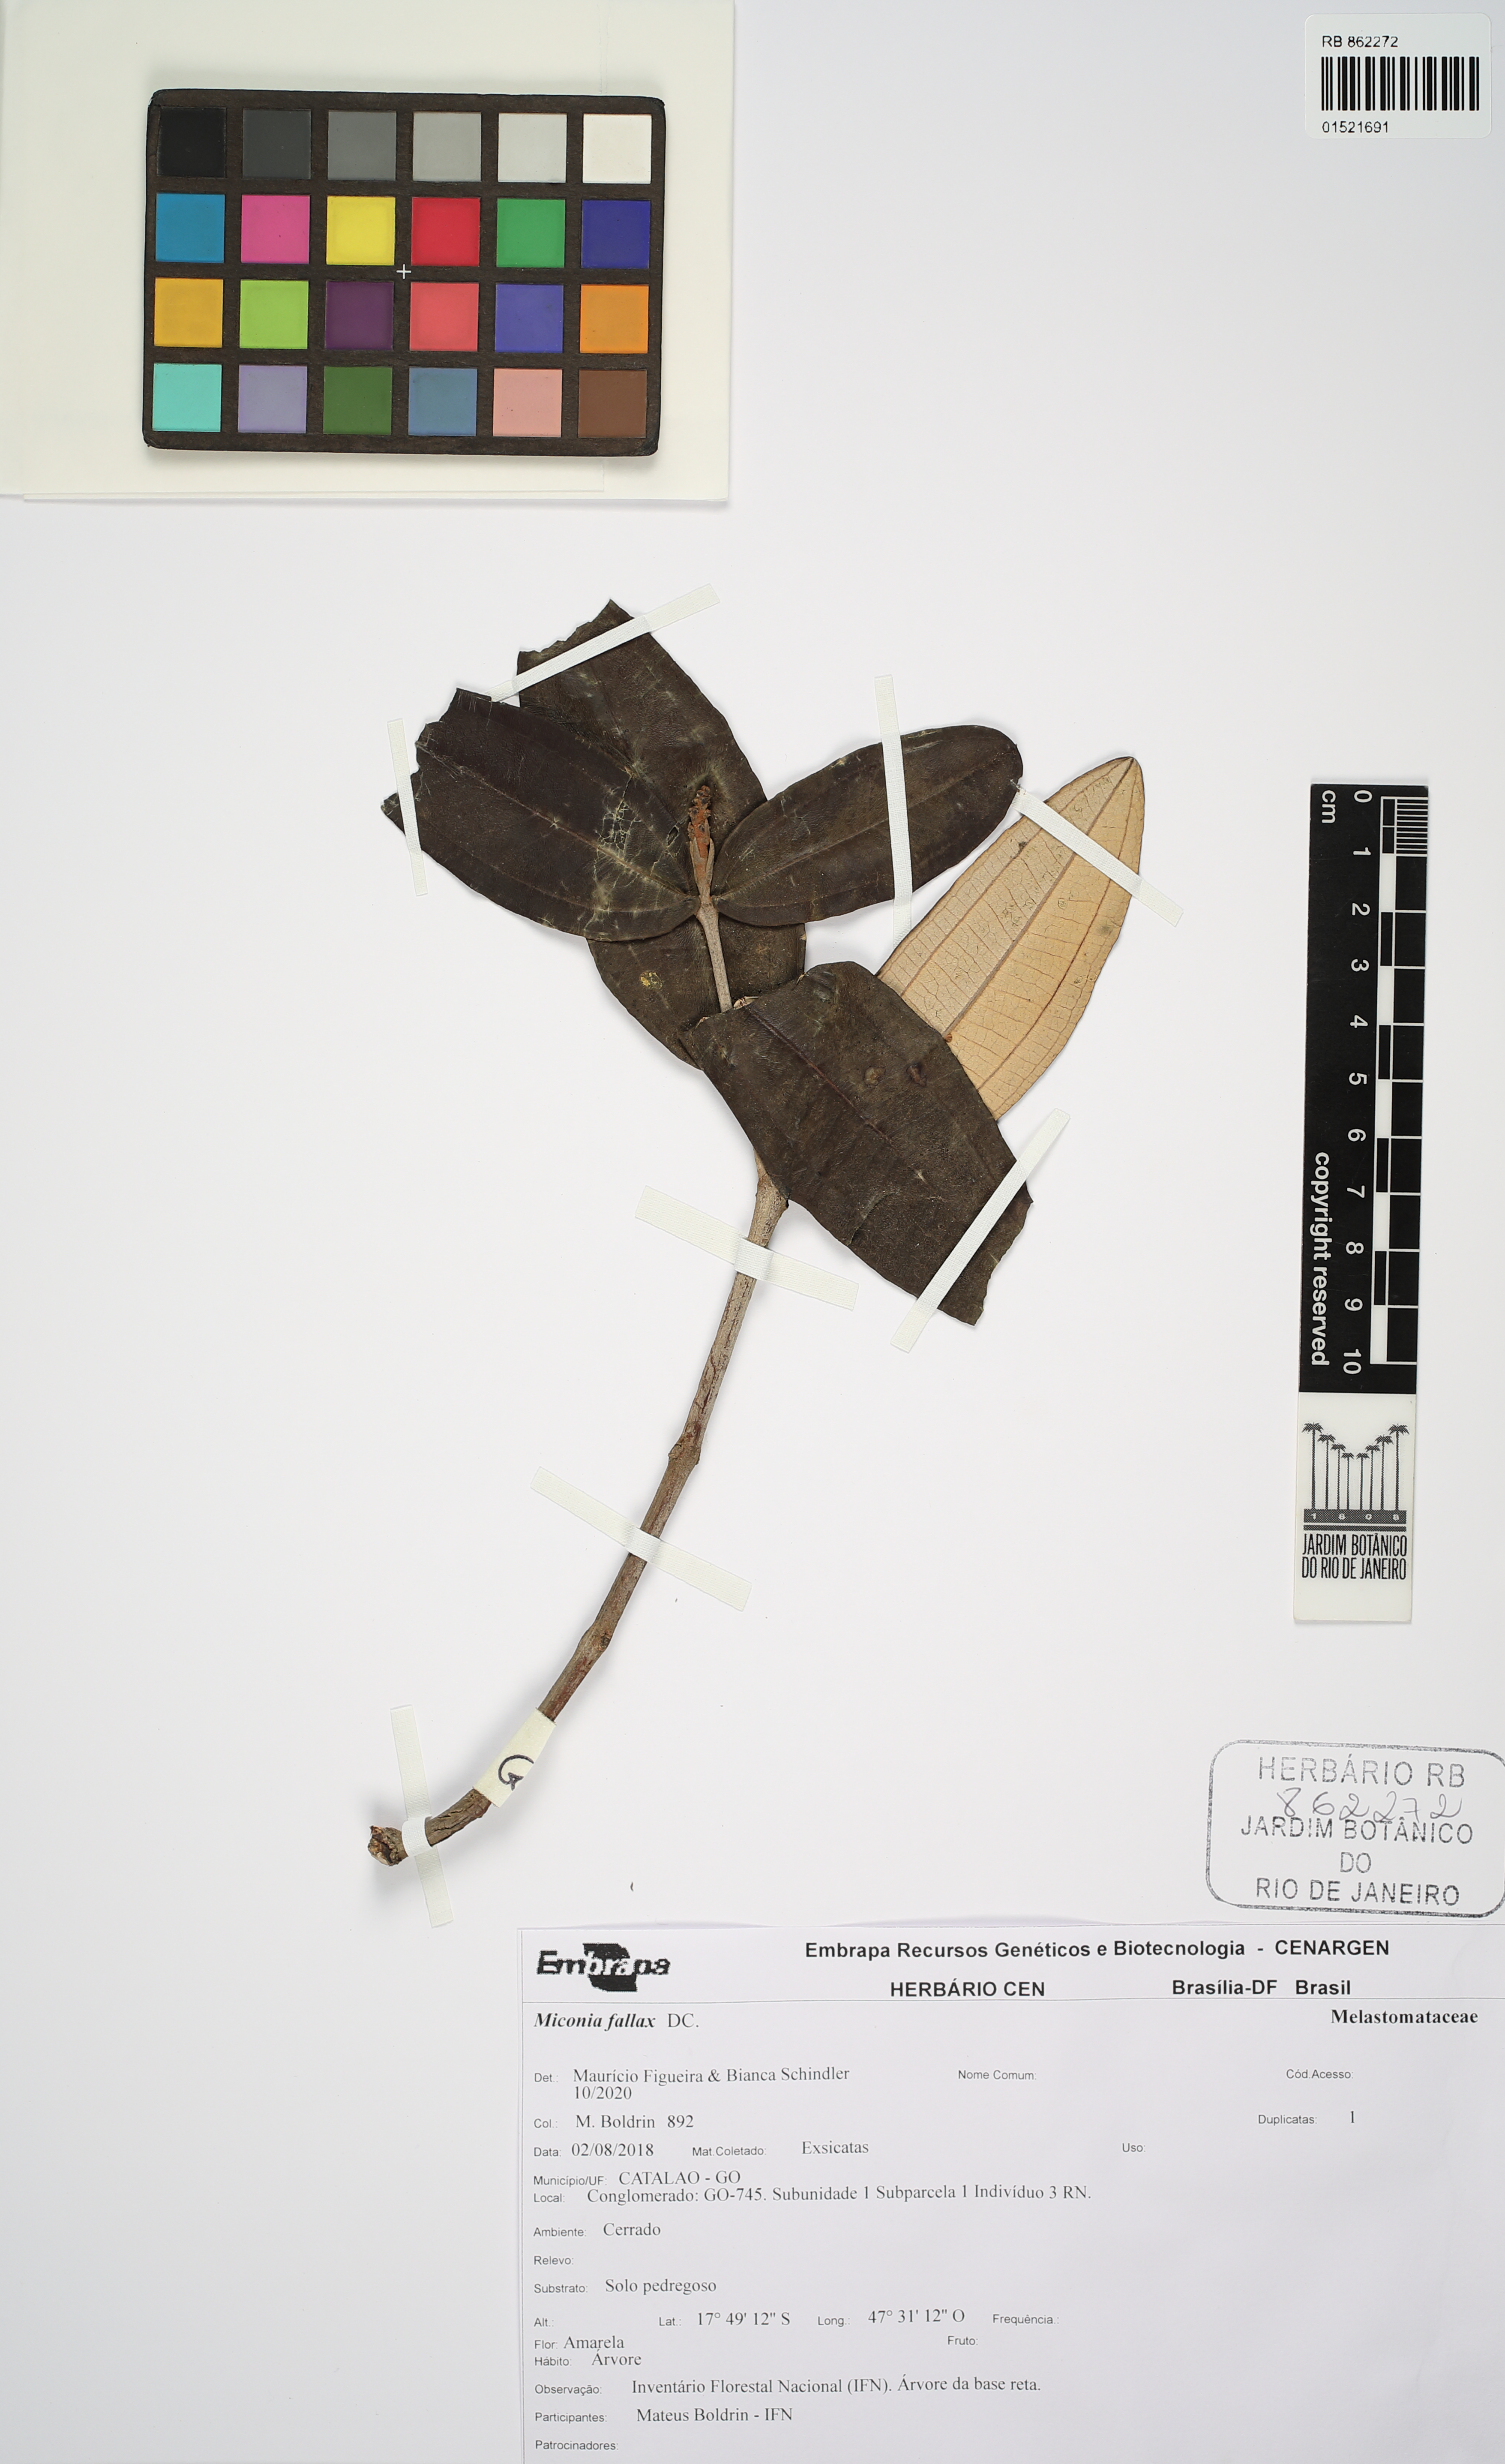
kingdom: Plantae
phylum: Tracheophyta
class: Magnoliopsida
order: Myrtales
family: Melastomataceae
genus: Miconia
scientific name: Miconia fallax
